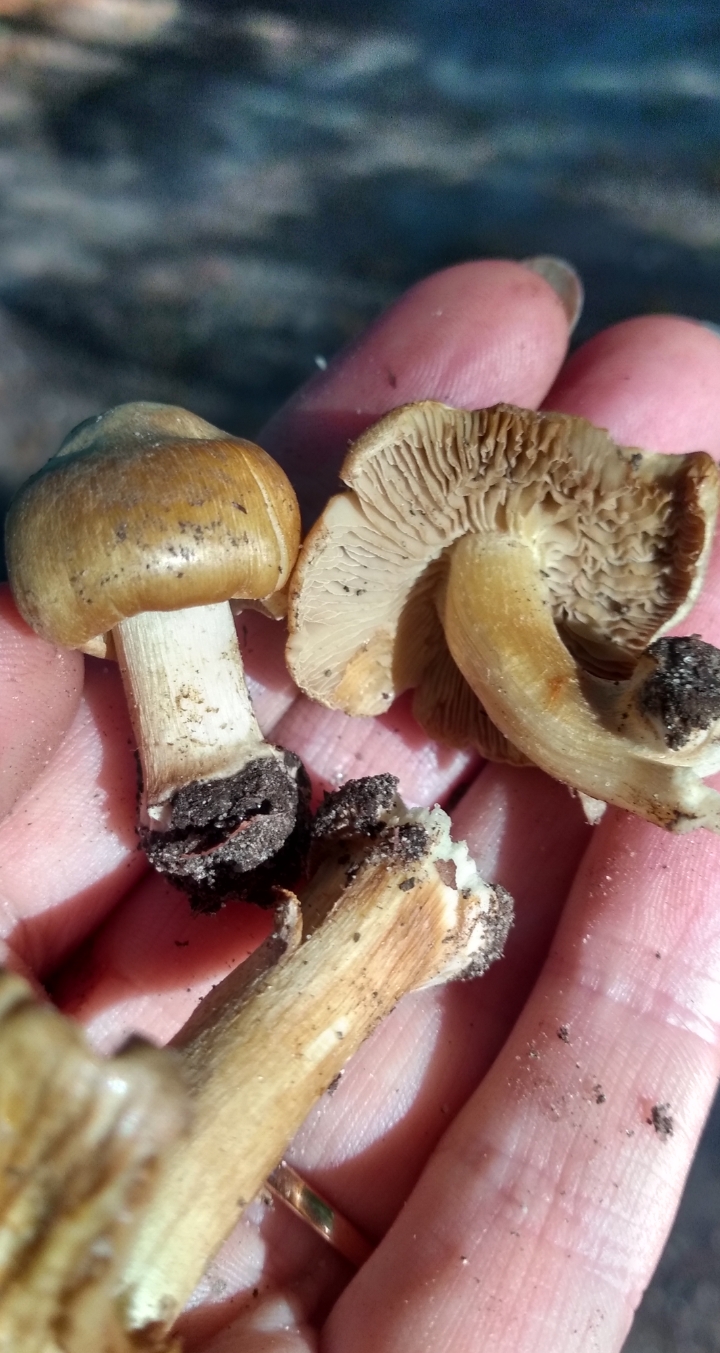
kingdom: Fungi
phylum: Basidiomycota
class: Agaricomycetes
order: Agaricales
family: Inocybaceae
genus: Inocybe
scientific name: Inocybe
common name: trævlhat
